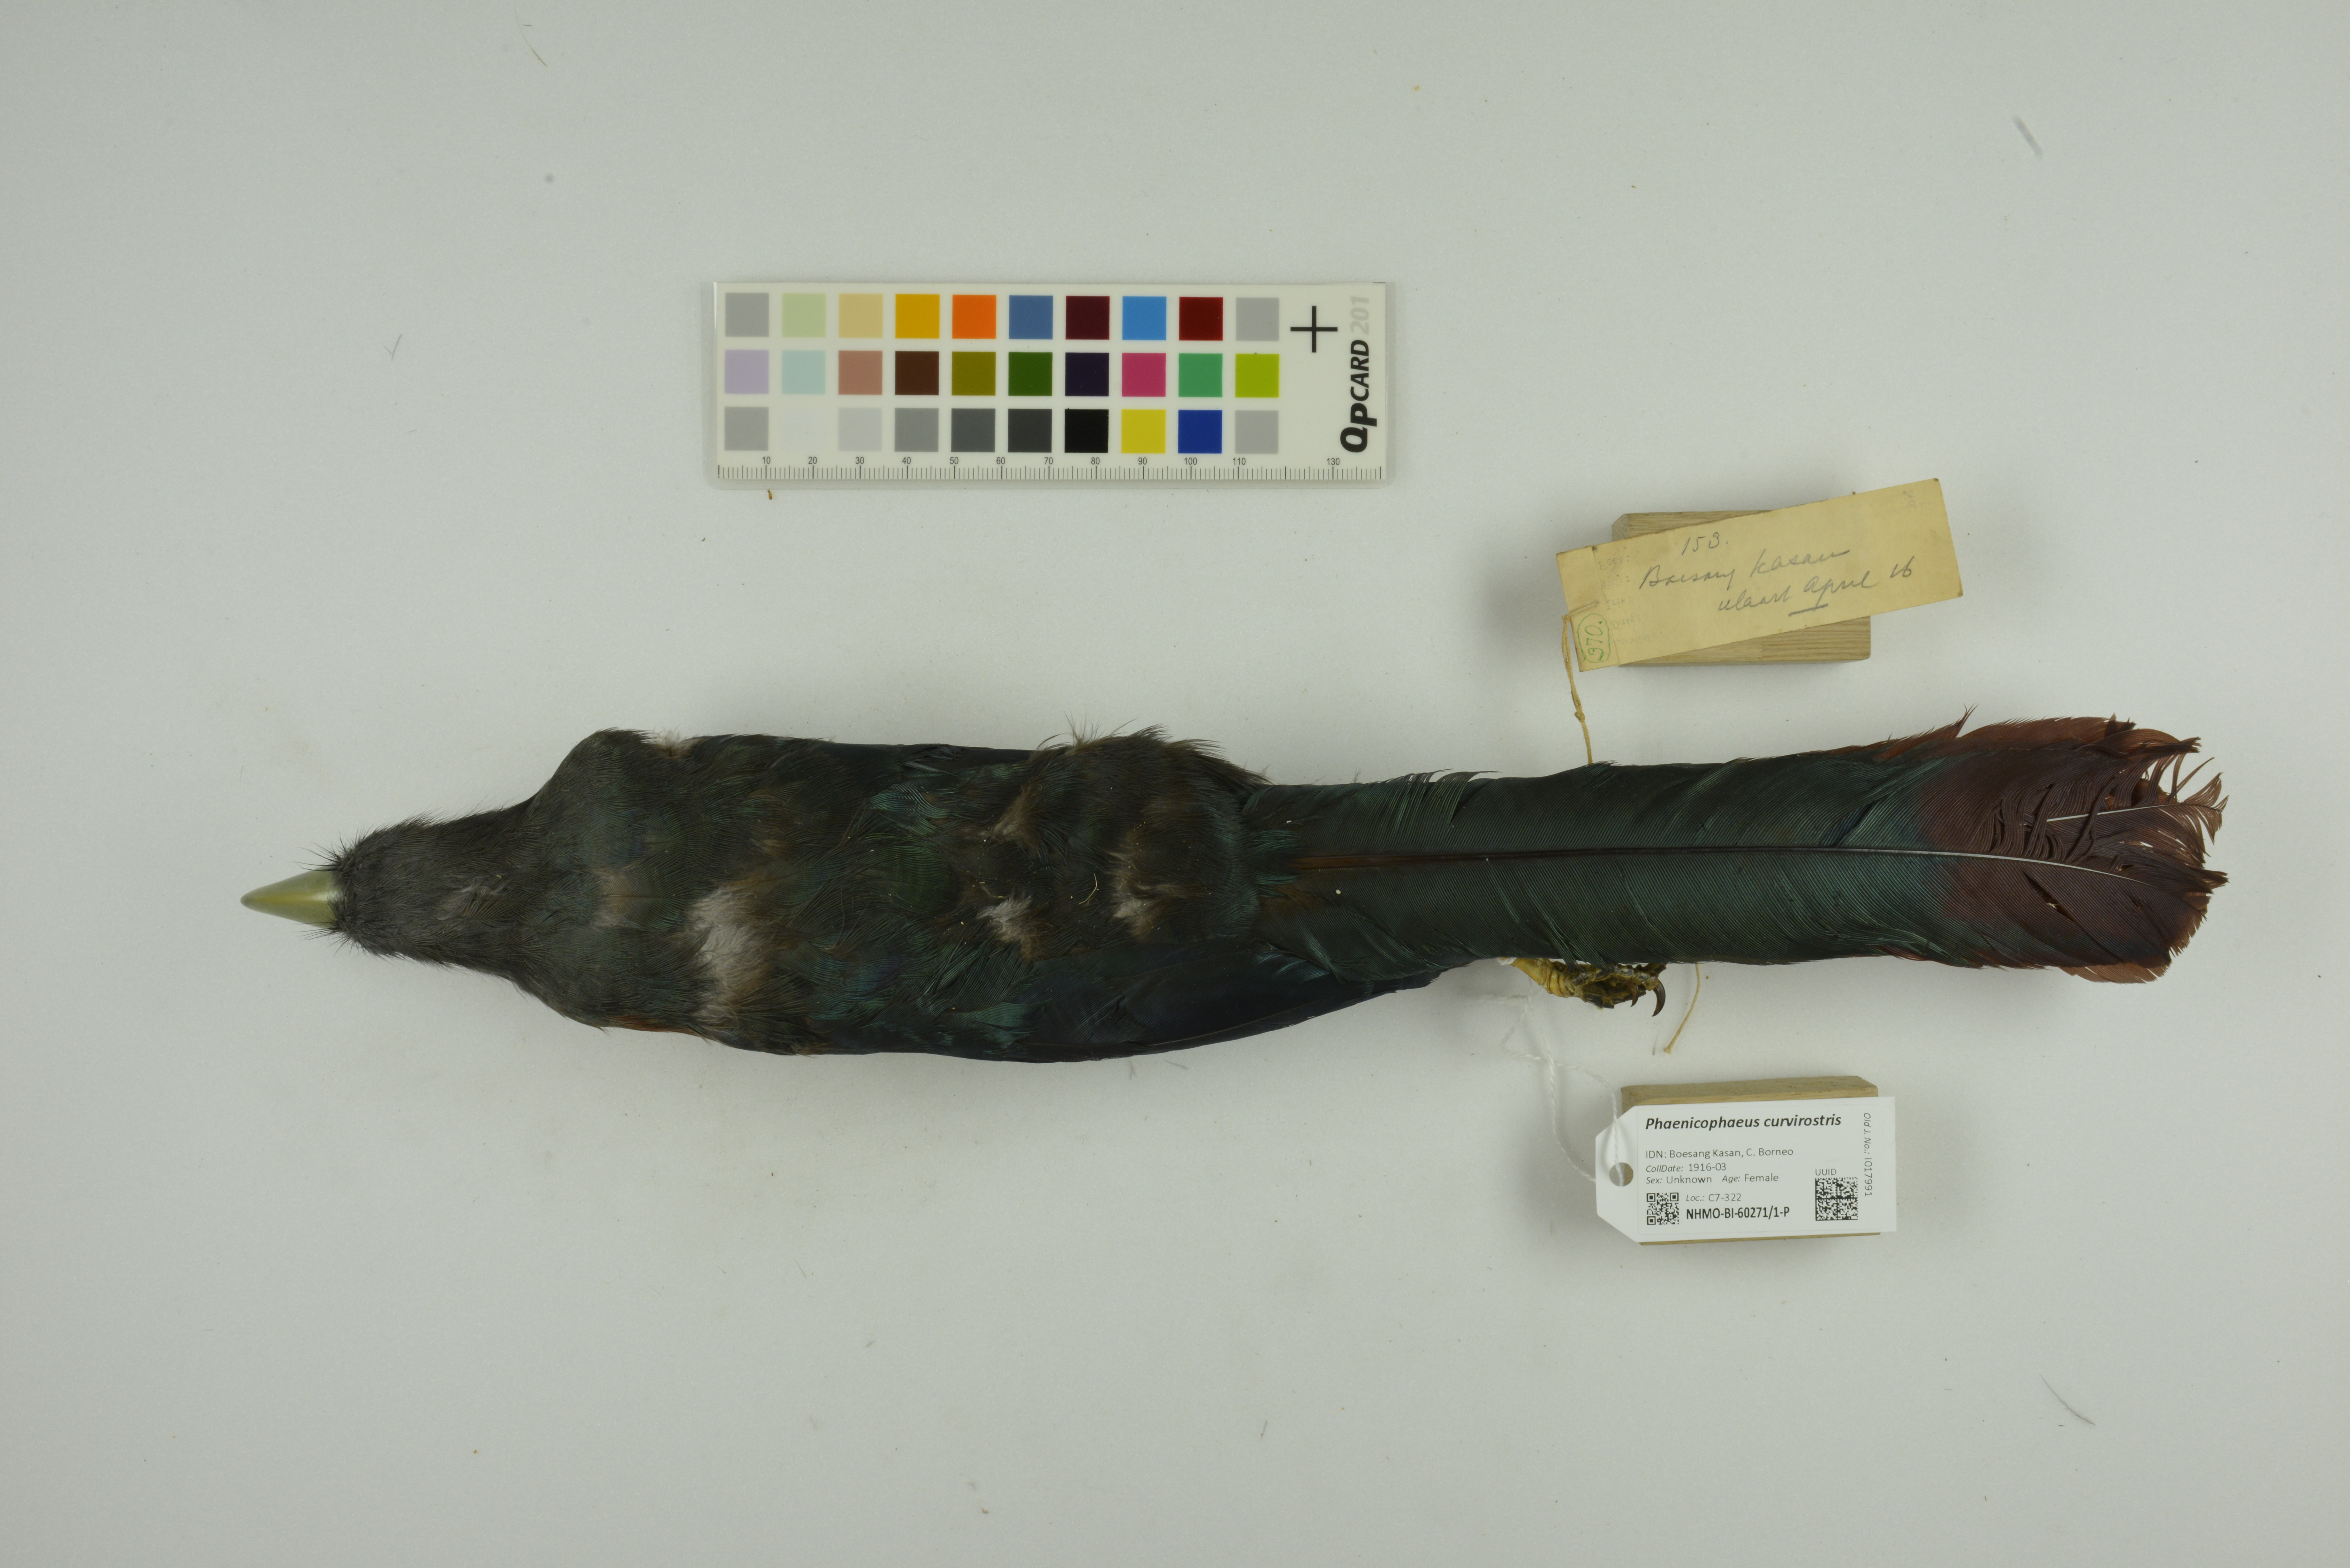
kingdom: Animalia
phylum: Chordata
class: Aves
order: Cuculiformes
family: Cuculidae
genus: Zanclostomus
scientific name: Zanclostomus curvirostris
